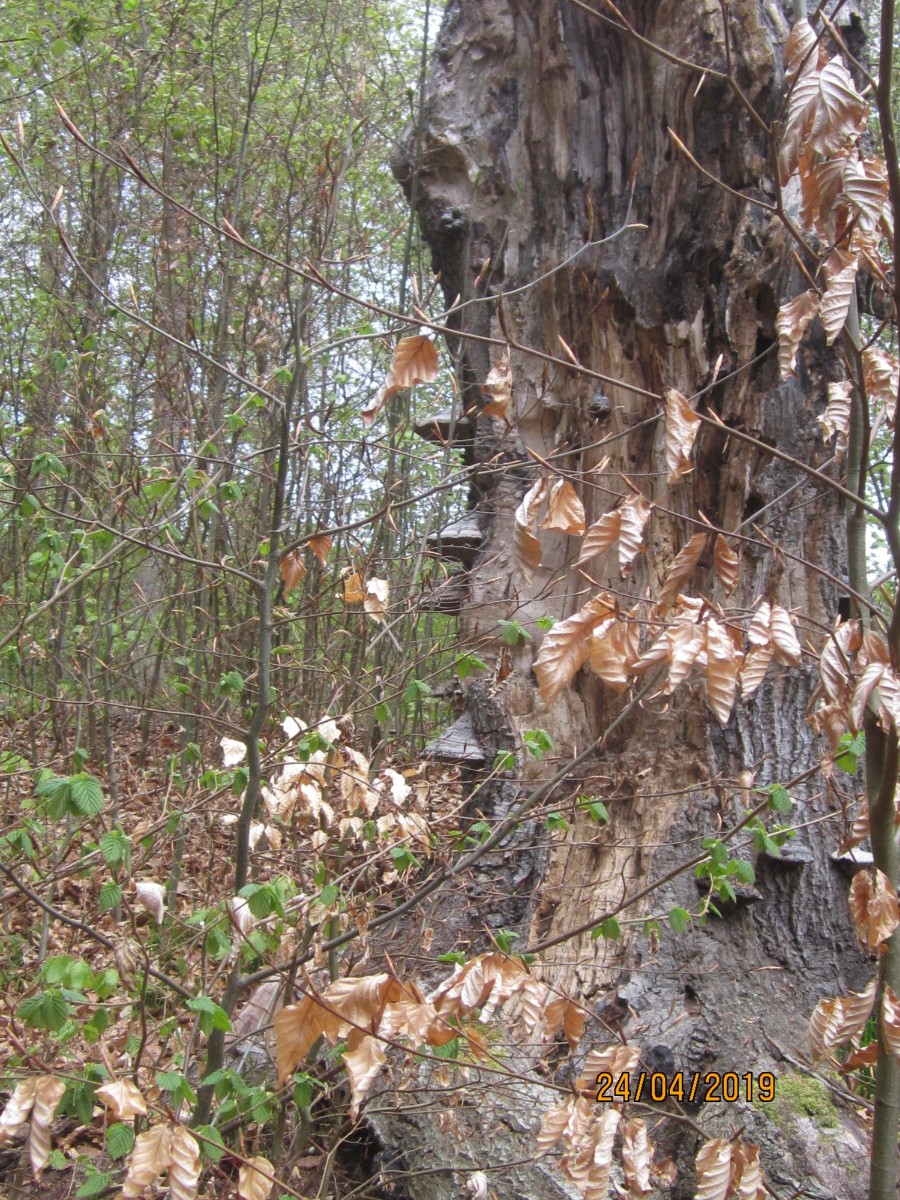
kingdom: Fungi
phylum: Basidiomycota
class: Agaricomycetes
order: Polyporales
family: Polyporaceae
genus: Fomes
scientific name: Fomes fomentarius
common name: tøndersvamp
